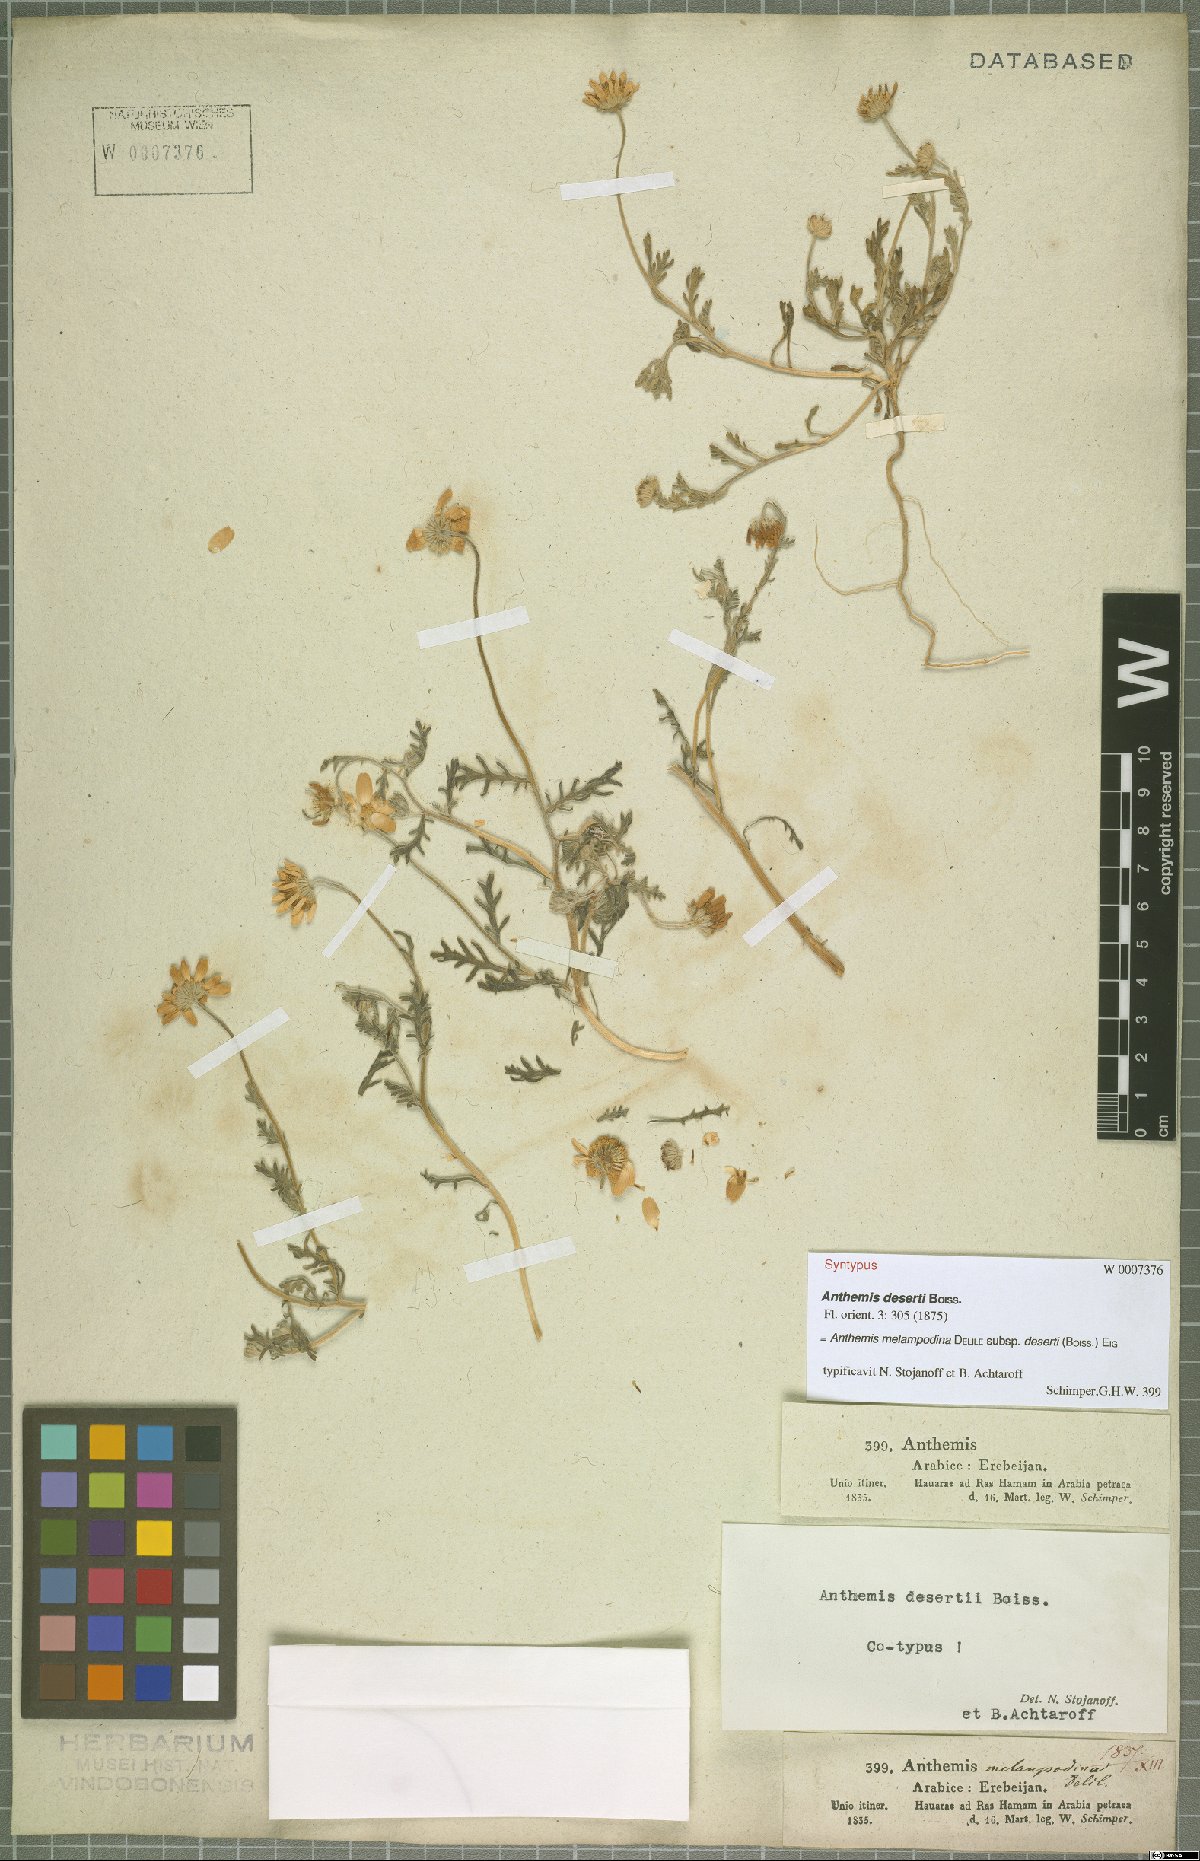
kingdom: Plantae
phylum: Tracheophyta
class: Magnoliopsida
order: Asterales
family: Asteraceae
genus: Anthemis
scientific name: Anthemis deserti
